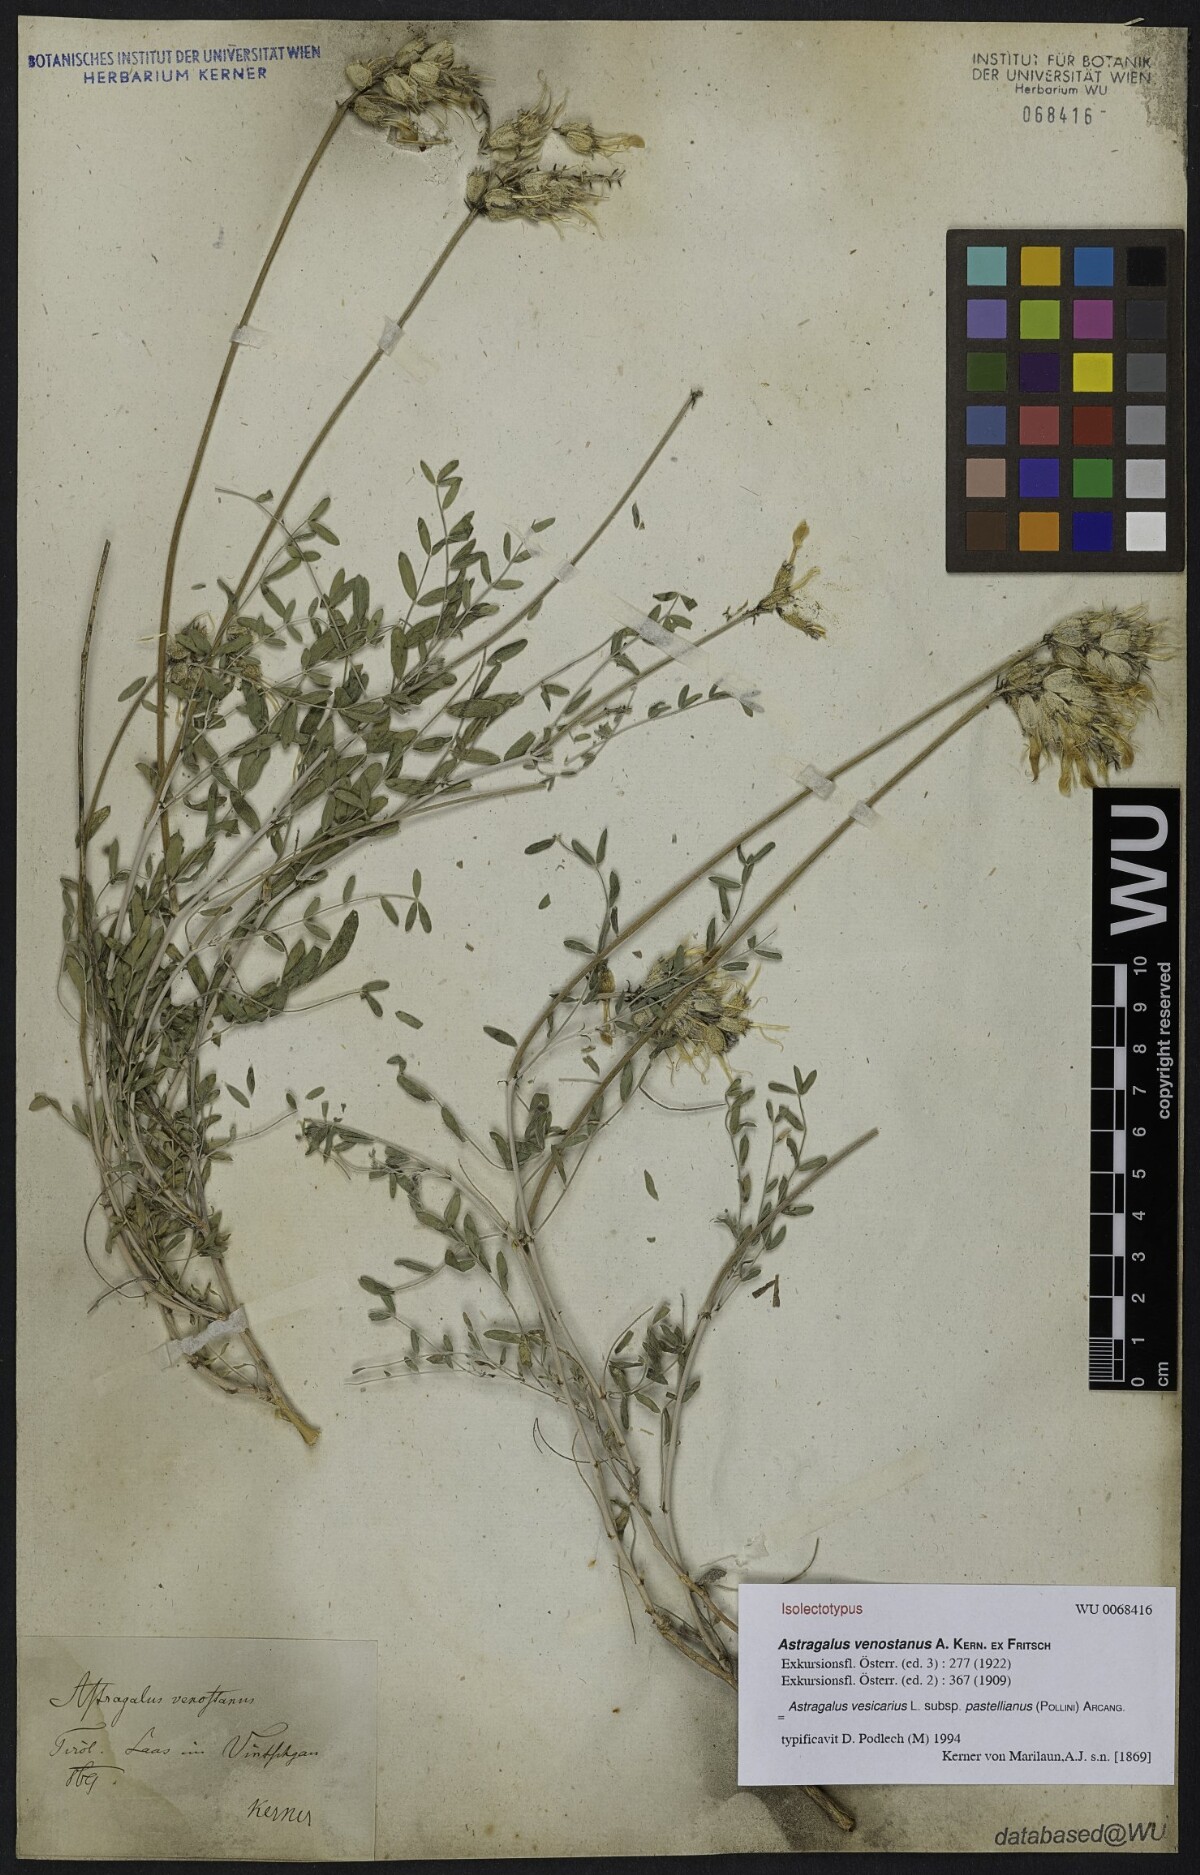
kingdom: Plantae
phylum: Tracheophyta
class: Magnoliopsida
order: Fabales
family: Fabaceae
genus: Astragalus
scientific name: Astragalus vesicarius
